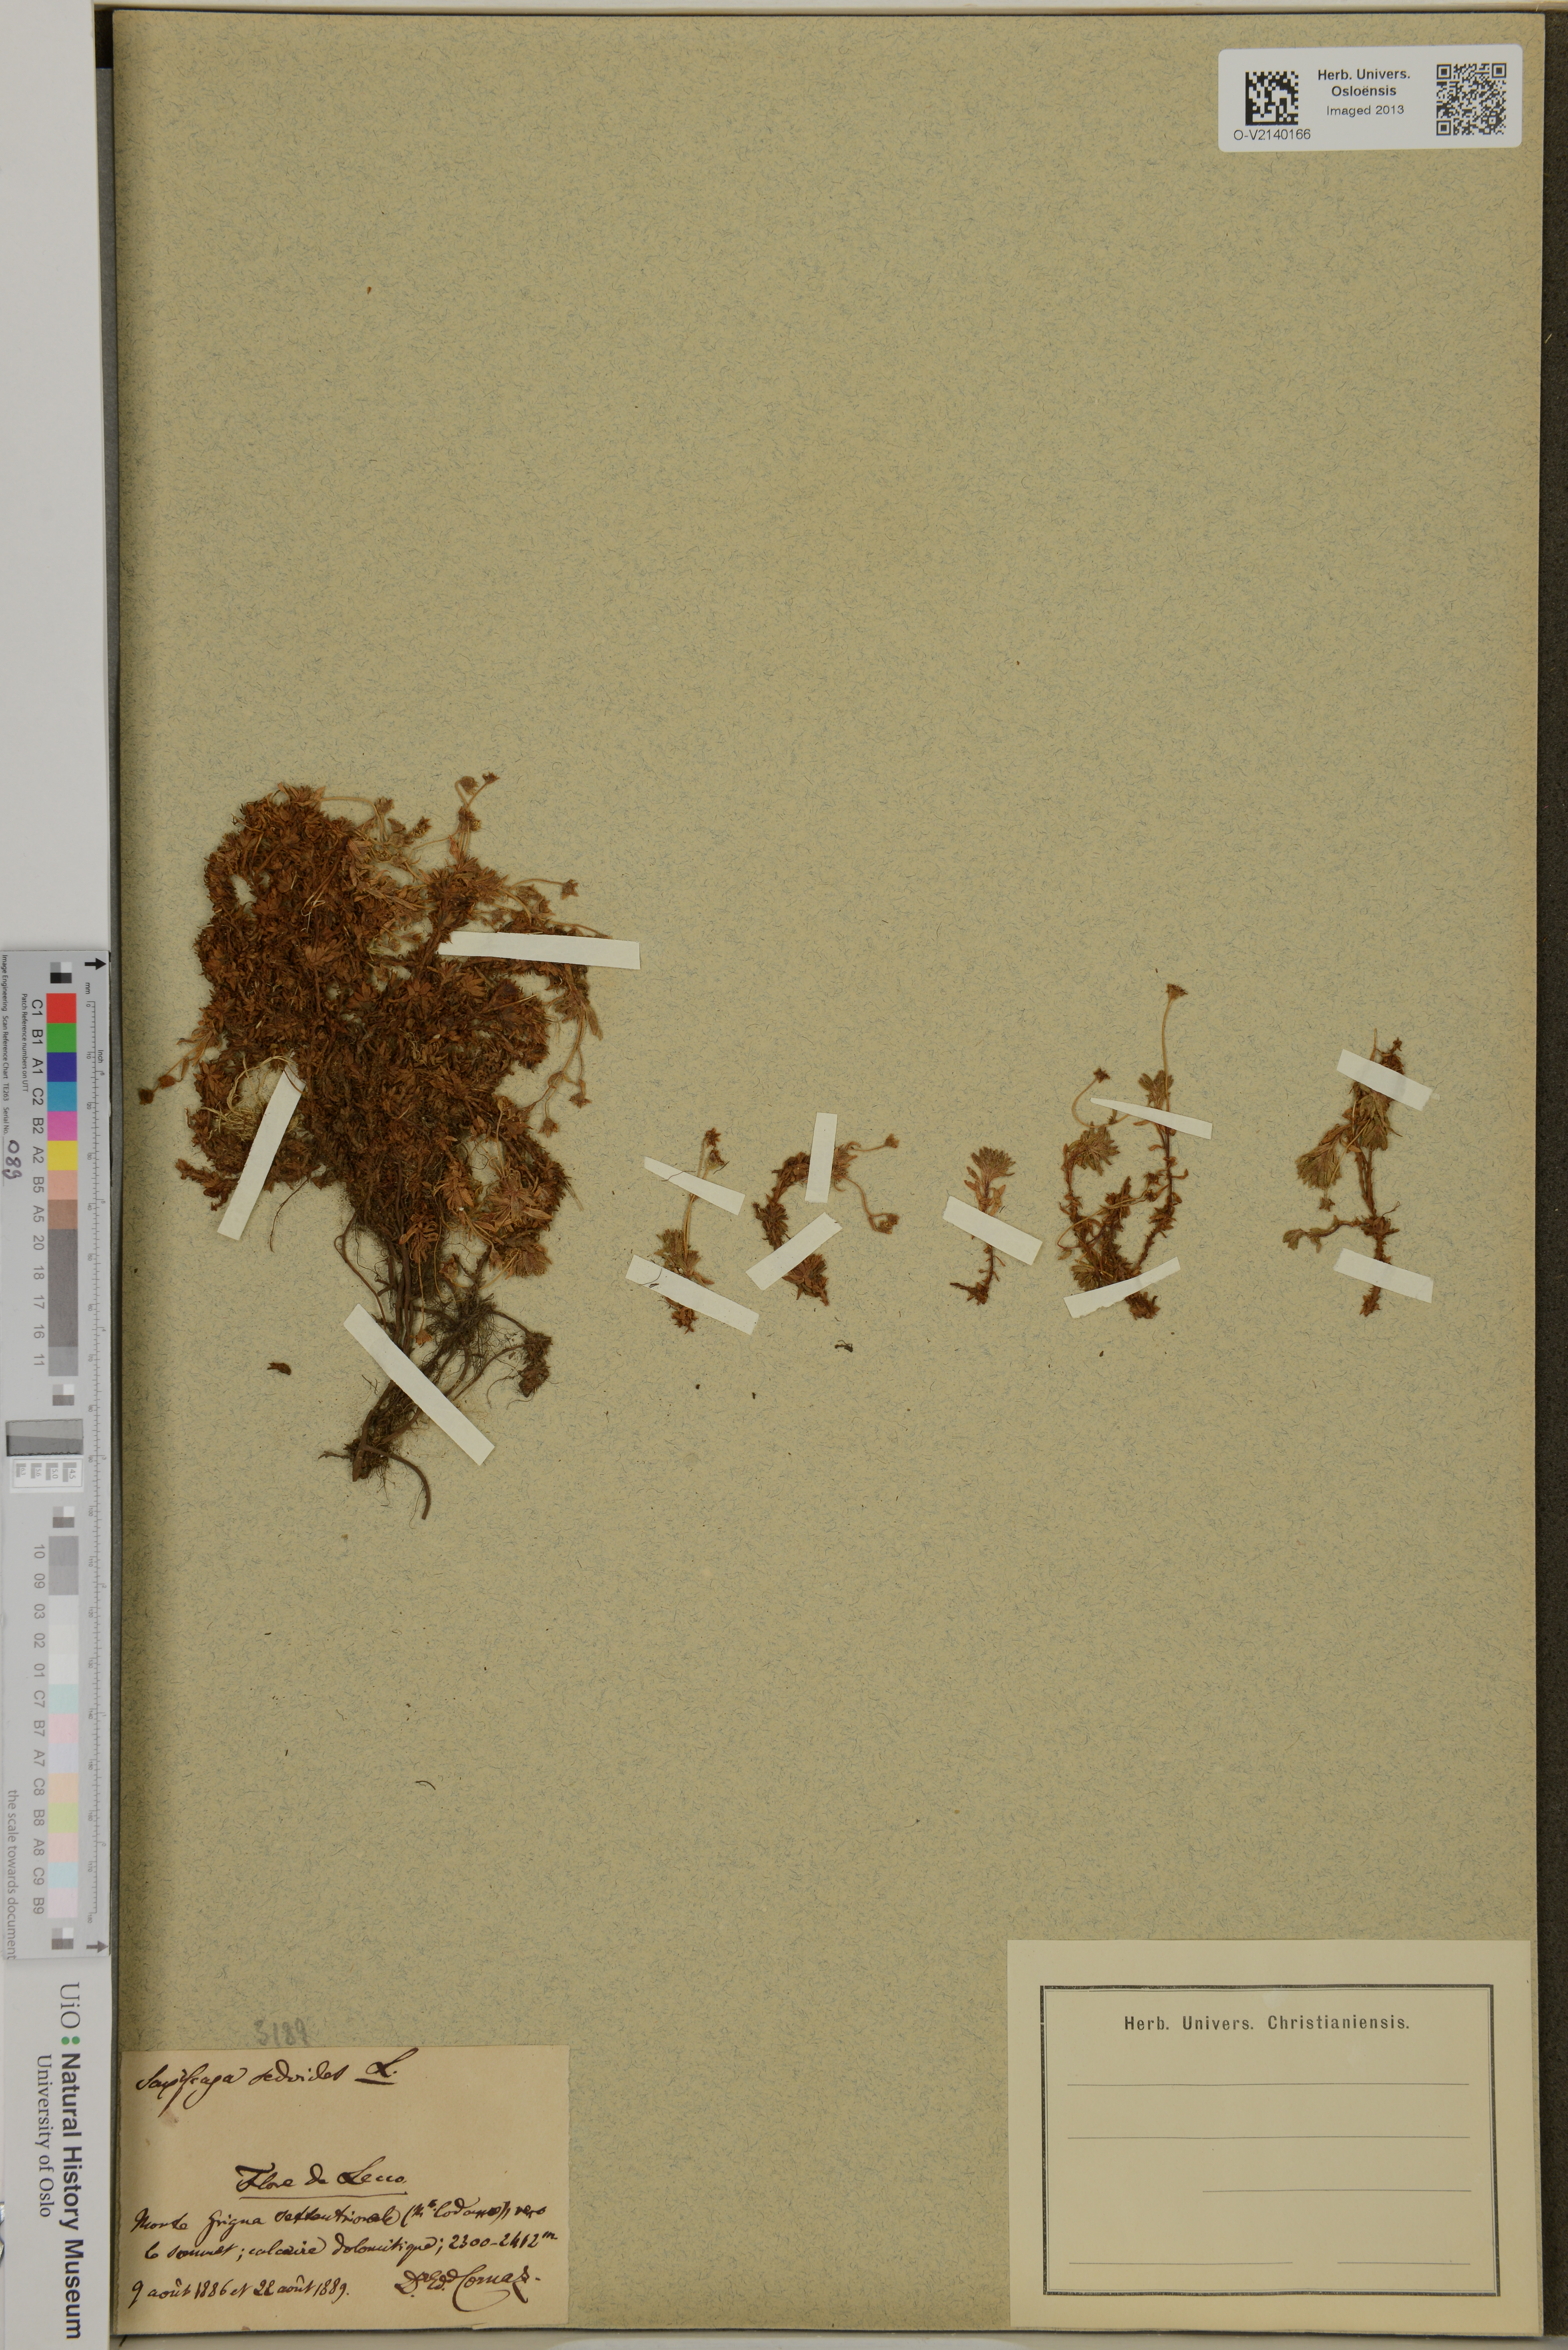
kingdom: Plantae
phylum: Tracheophyta
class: Magnoliopsida
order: Saxifragales
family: Saxifragaceae
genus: Saxifraga
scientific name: Saxifraga sedoides
